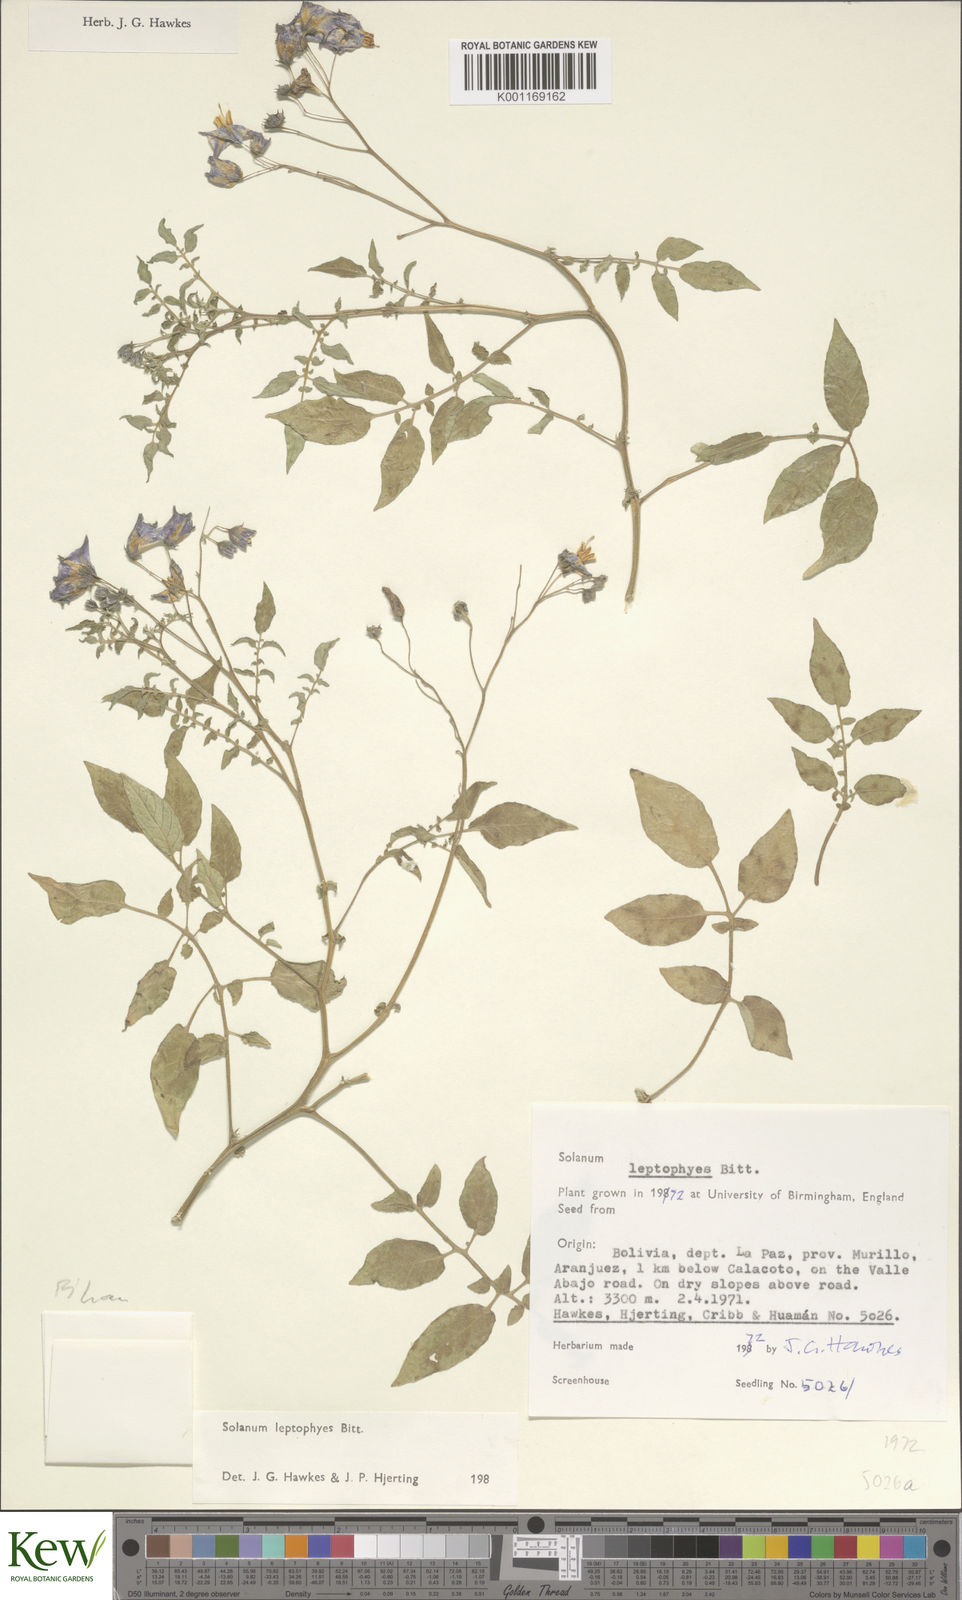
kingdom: Plantae
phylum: Tracheophyta
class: Magnoliopsida
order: Solanales
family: Solanaceae
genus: Solanum
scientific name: Solanum brevicaule
